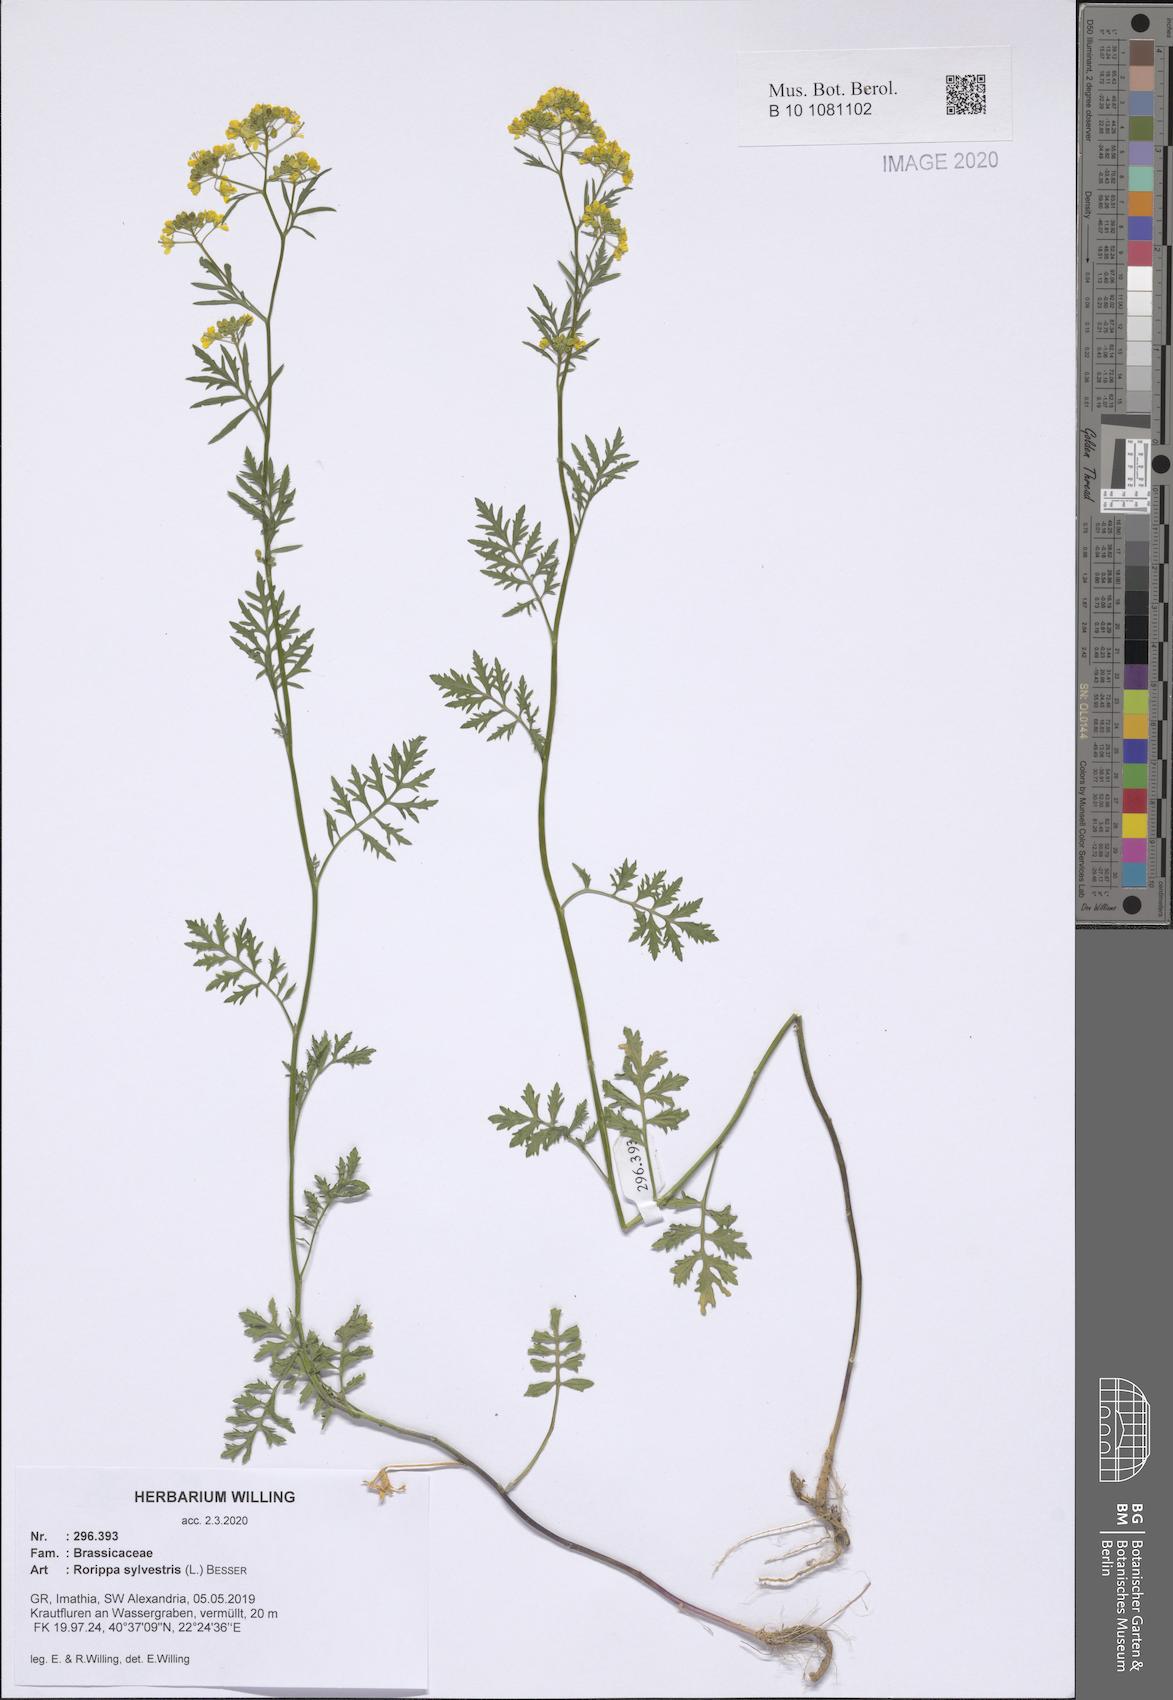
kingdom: Plantae
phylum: Tracheophyta
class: Magnoliopsida
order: Brassicales
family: Brassicaceae
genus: Rorippa
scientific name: Rorippa sylvestris
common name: Creeping yellowcress
